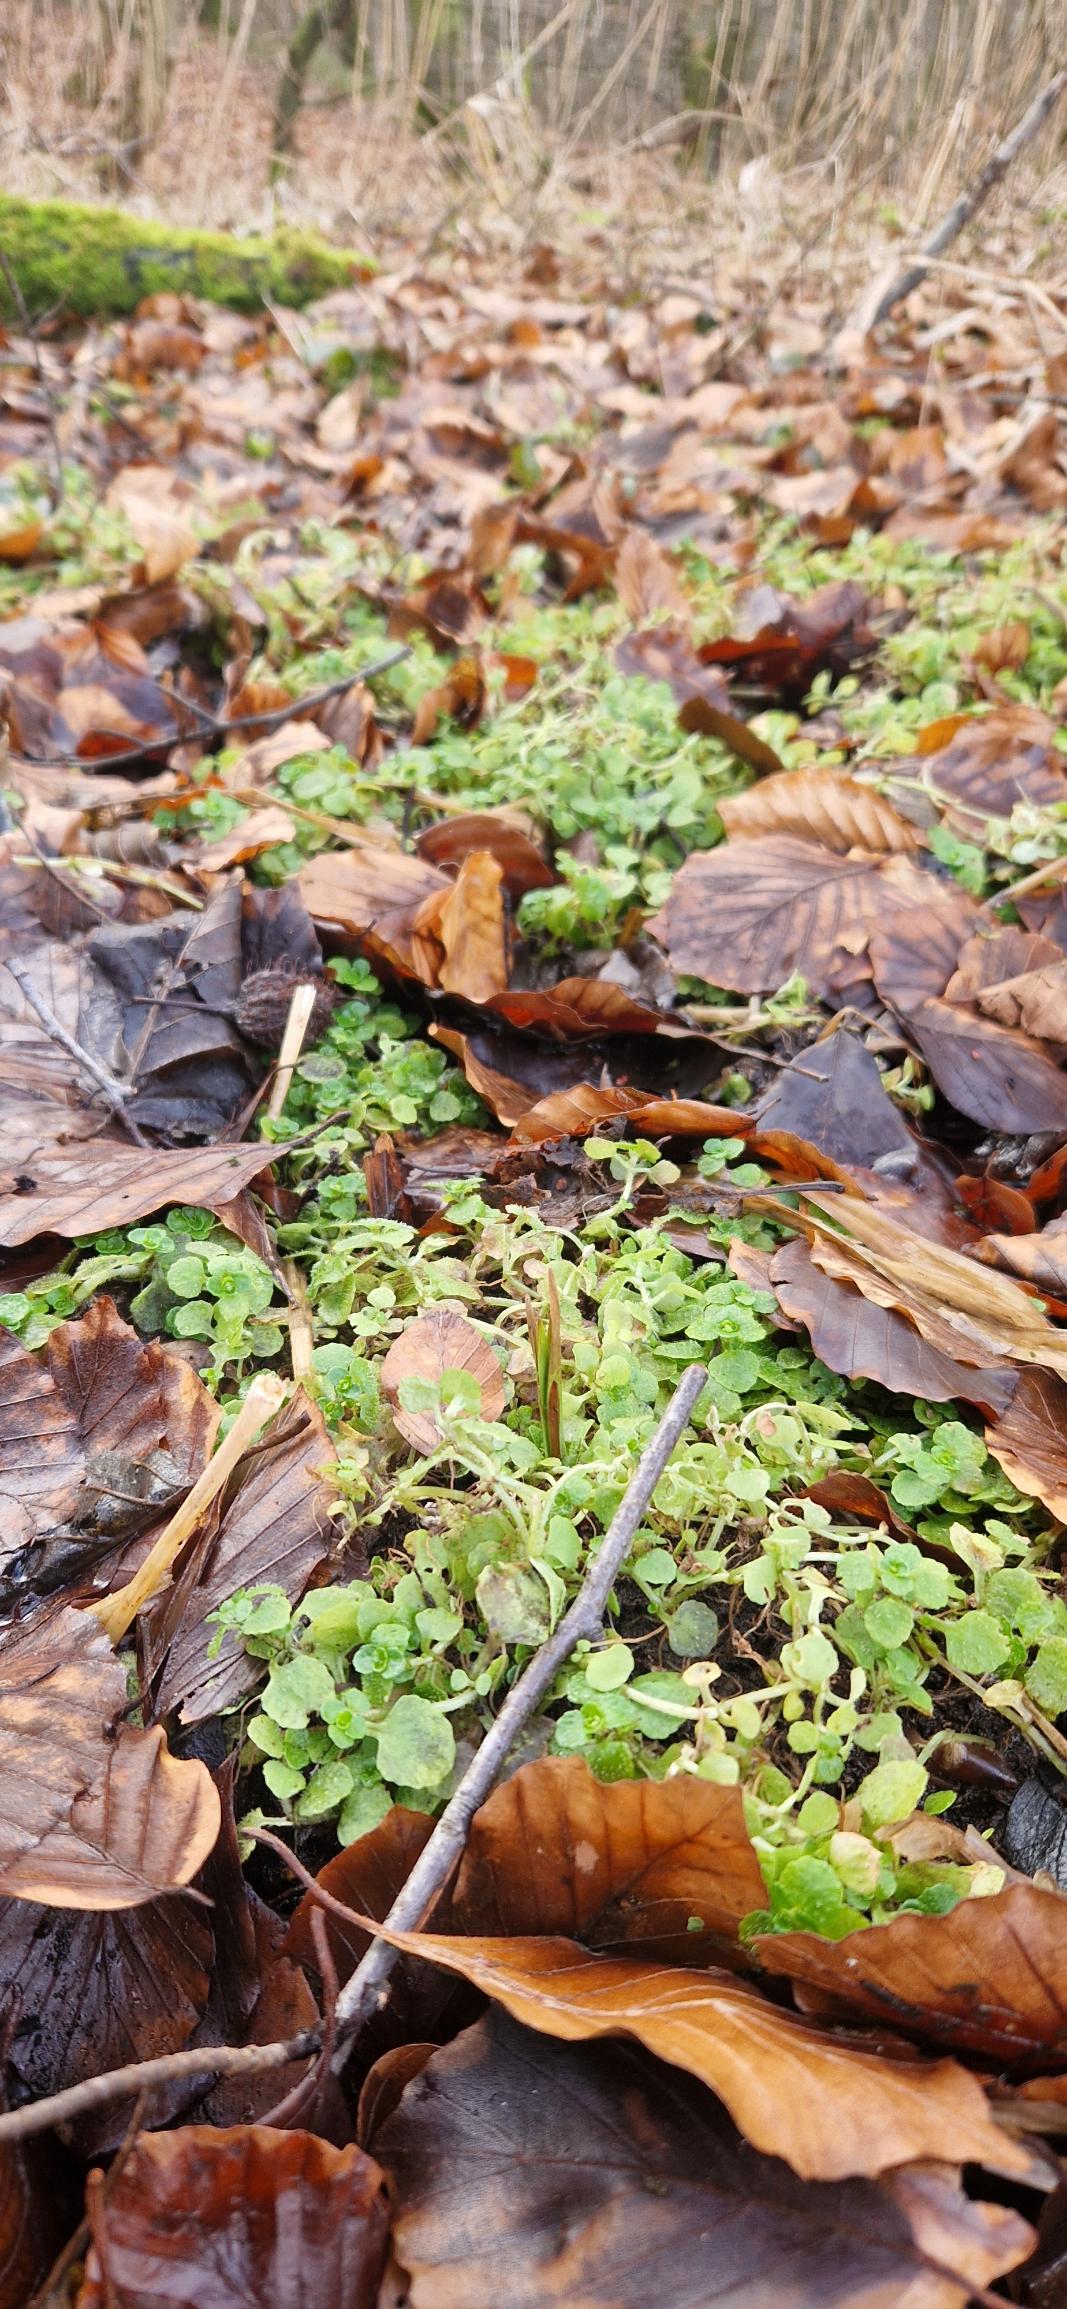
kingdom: Plantae
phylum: Tracheophyta
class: Magnoliopsida
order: Saxifragales
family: Saxifragaceae
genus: Chrysosplenium
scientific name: Chrysosplenium oppositifolium
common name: Småbladet milturt
